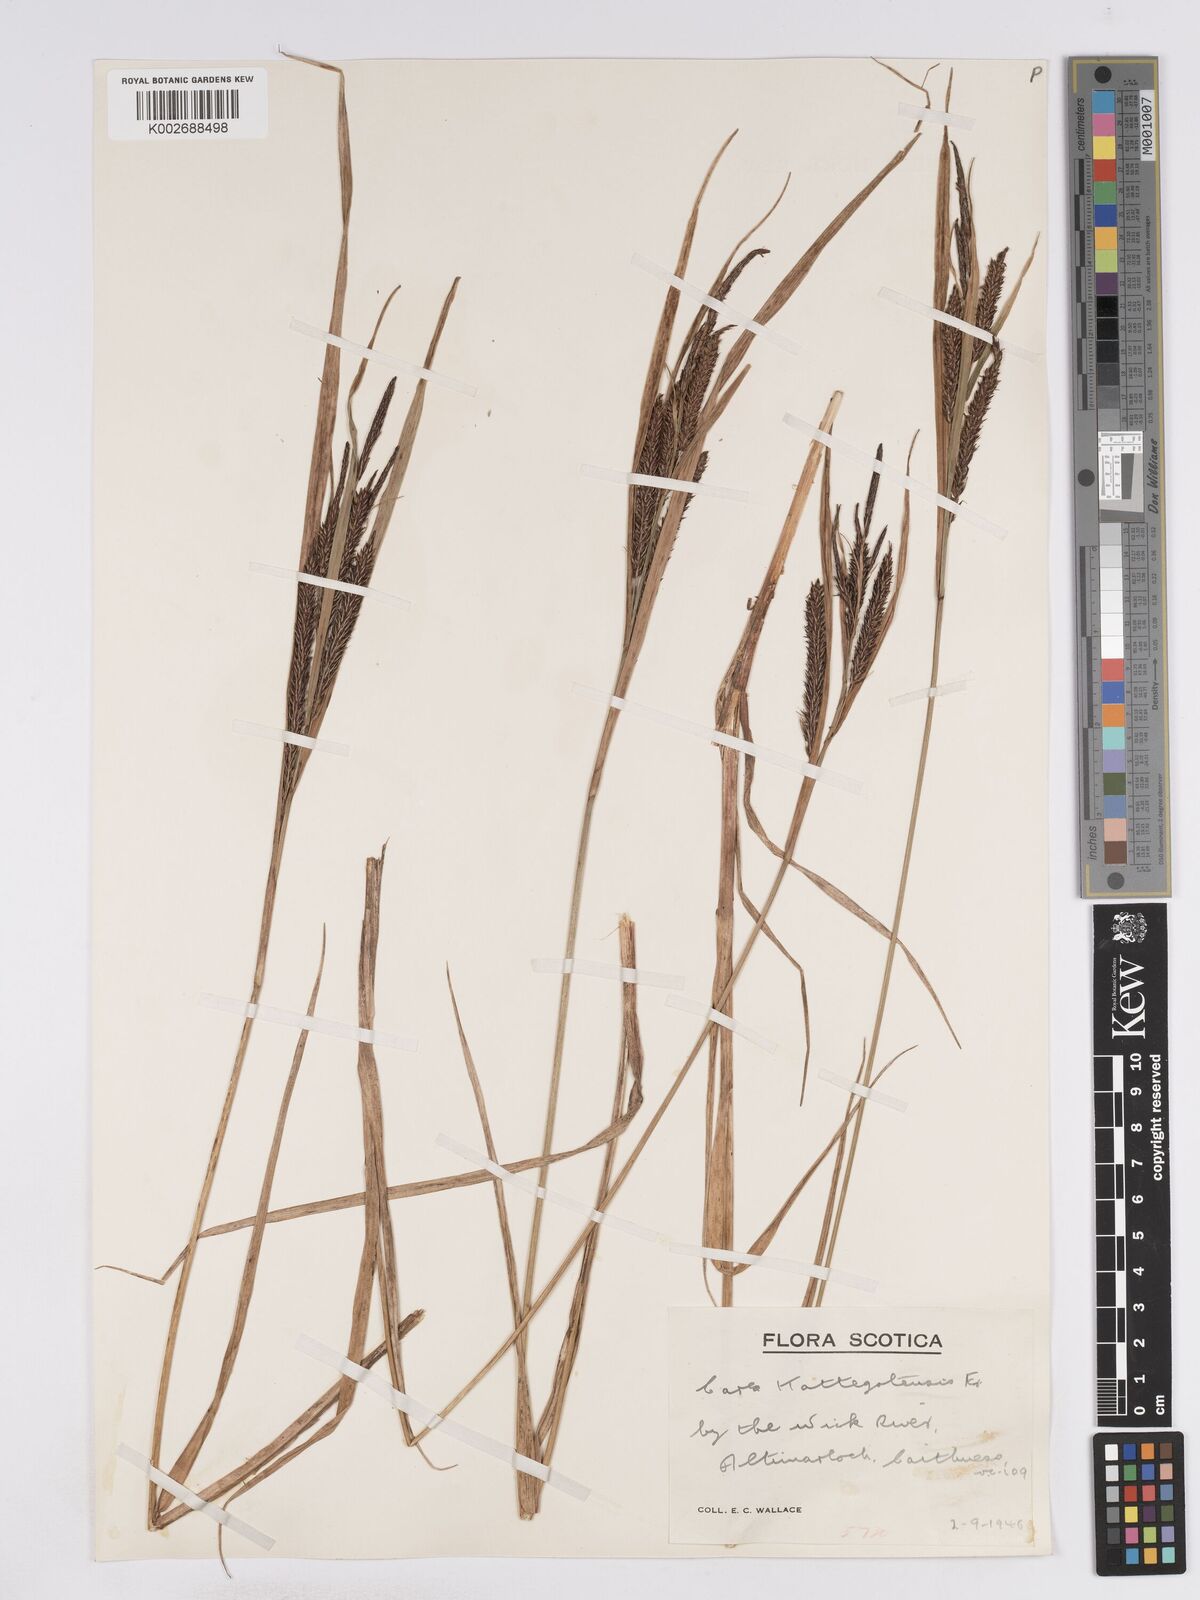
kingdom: Plantae
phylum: Tracheophyta
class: Liliopsida
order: Poales
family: Cyperaceae
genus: Carex
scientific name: Carex recta
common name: Estuarine sedge
